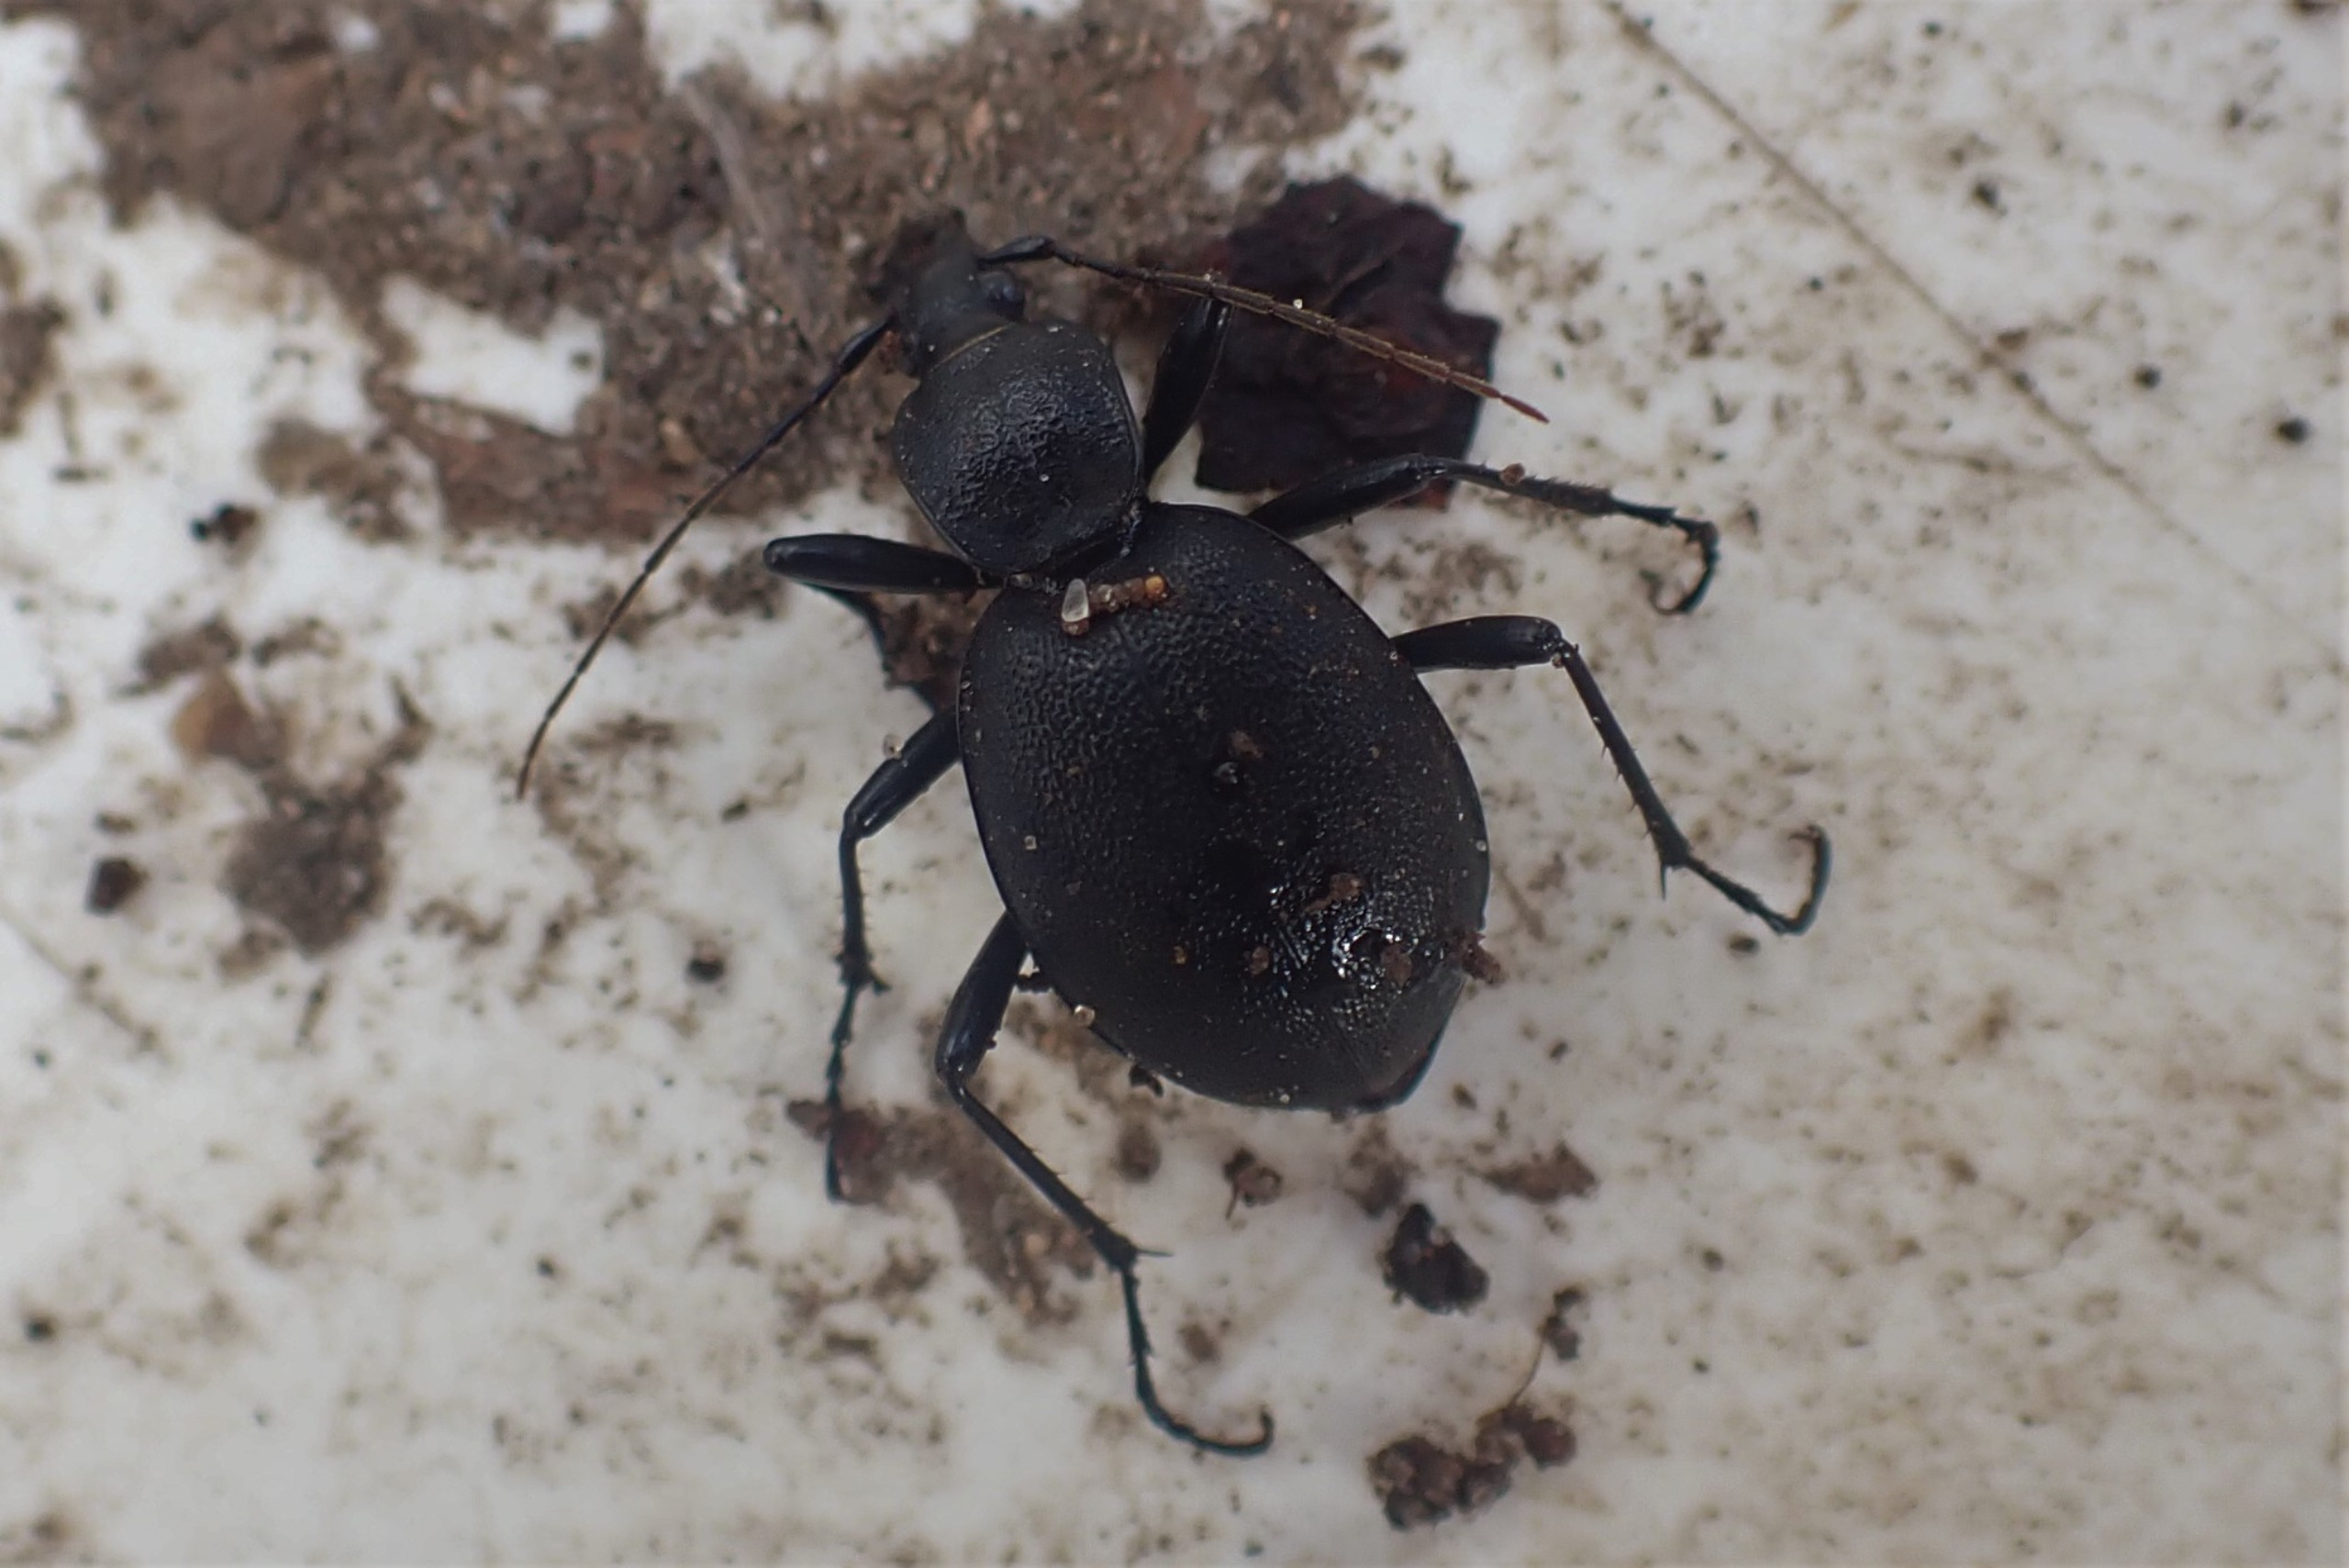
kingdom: Animalia
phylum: Arthropoda
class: Insecta
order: Coleoptera
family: Carabidae
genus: Cychrus
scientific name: Cychrus caraboides
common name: Sneglerøver
